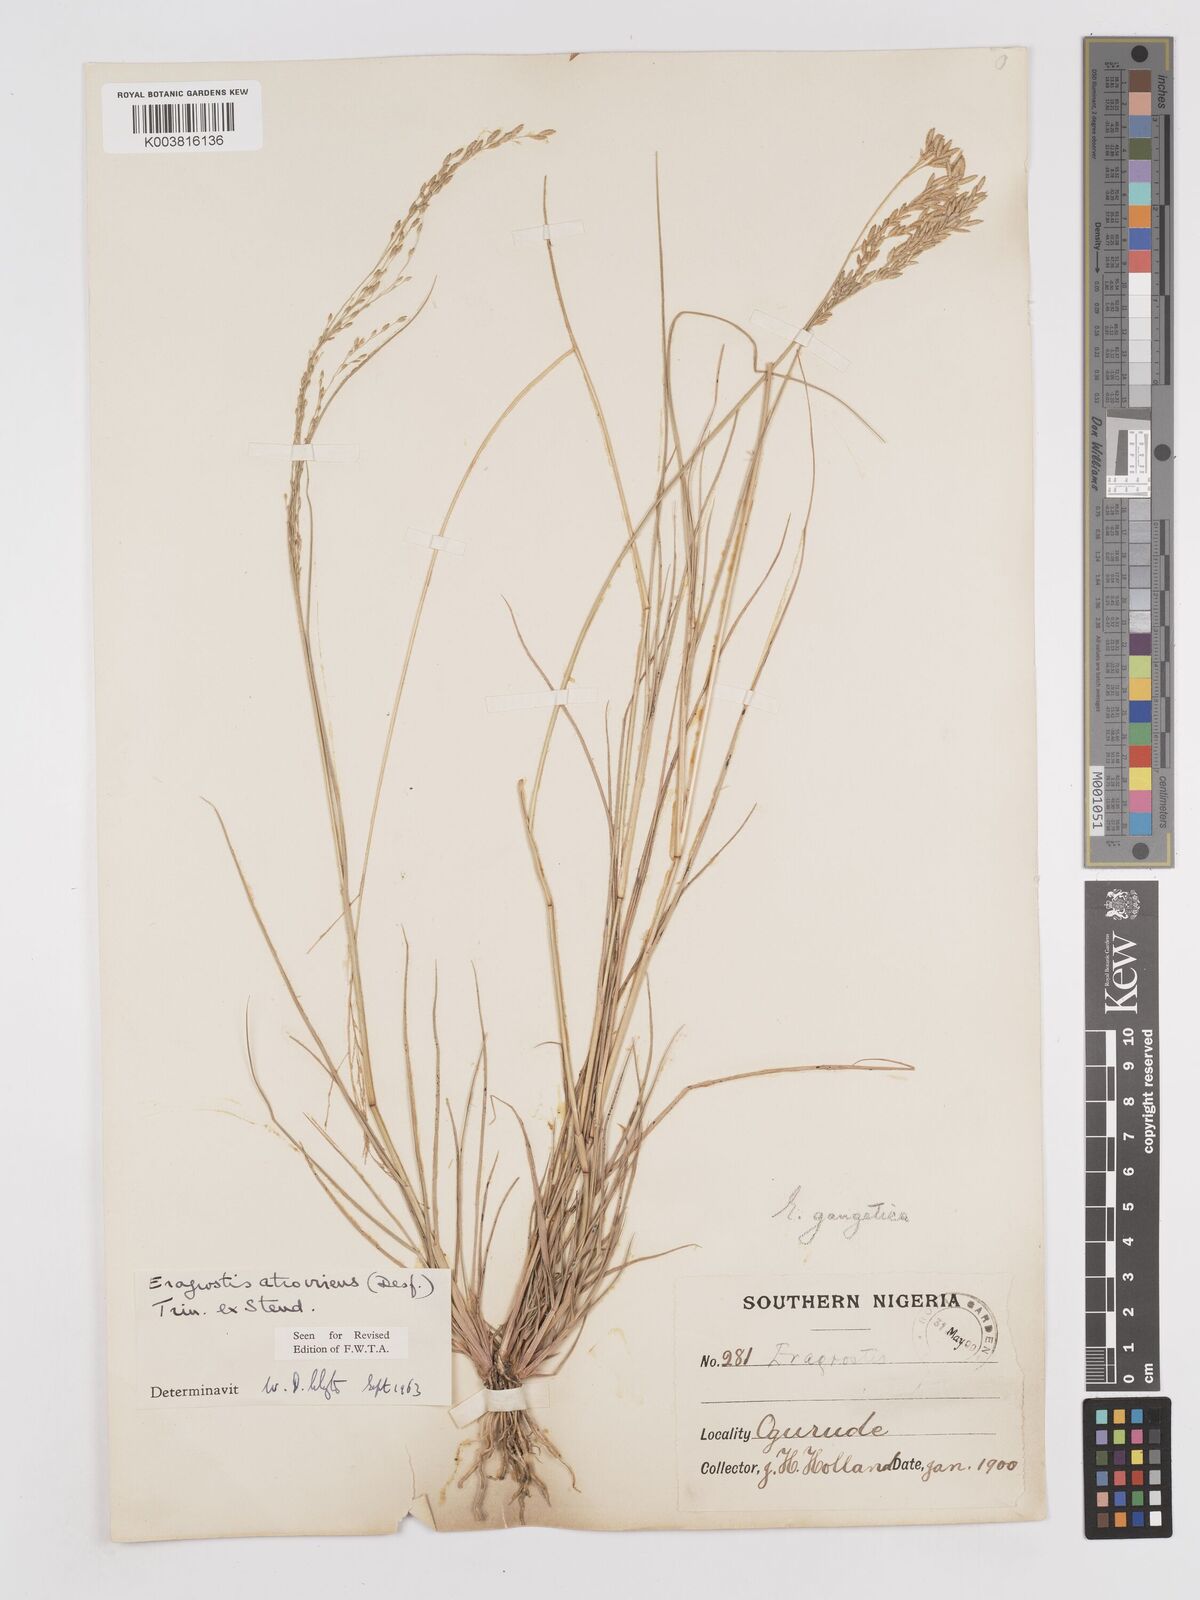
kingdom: Plantae
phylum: Tracheophyta
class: Liliopsida
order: Poales
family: Poaceae
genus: Eragrostis
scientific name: Eragrostis atrovirens
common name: Thalia lovegrass
